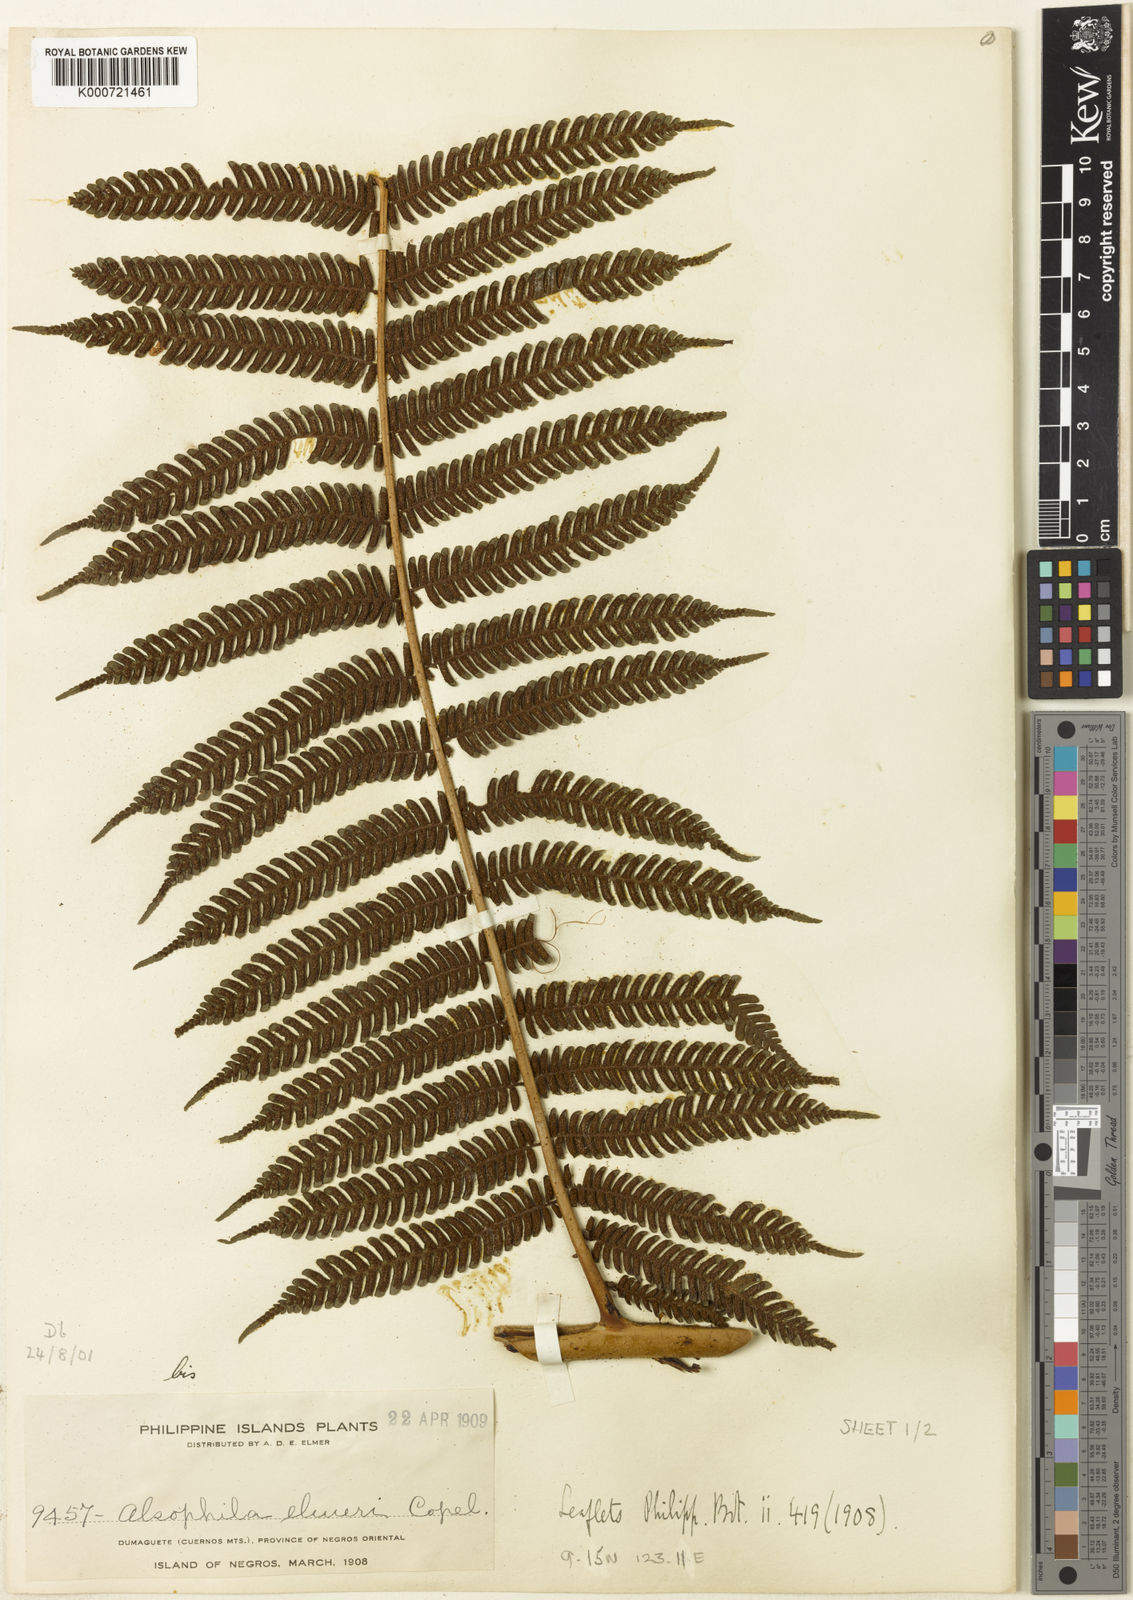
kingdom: Plantae
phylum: Tracheophyta
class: Polypodiopsida
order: Cyatheales
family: Cyatheaceae
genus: Sphaeropteris
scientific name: Sphaeropteris elmeri
